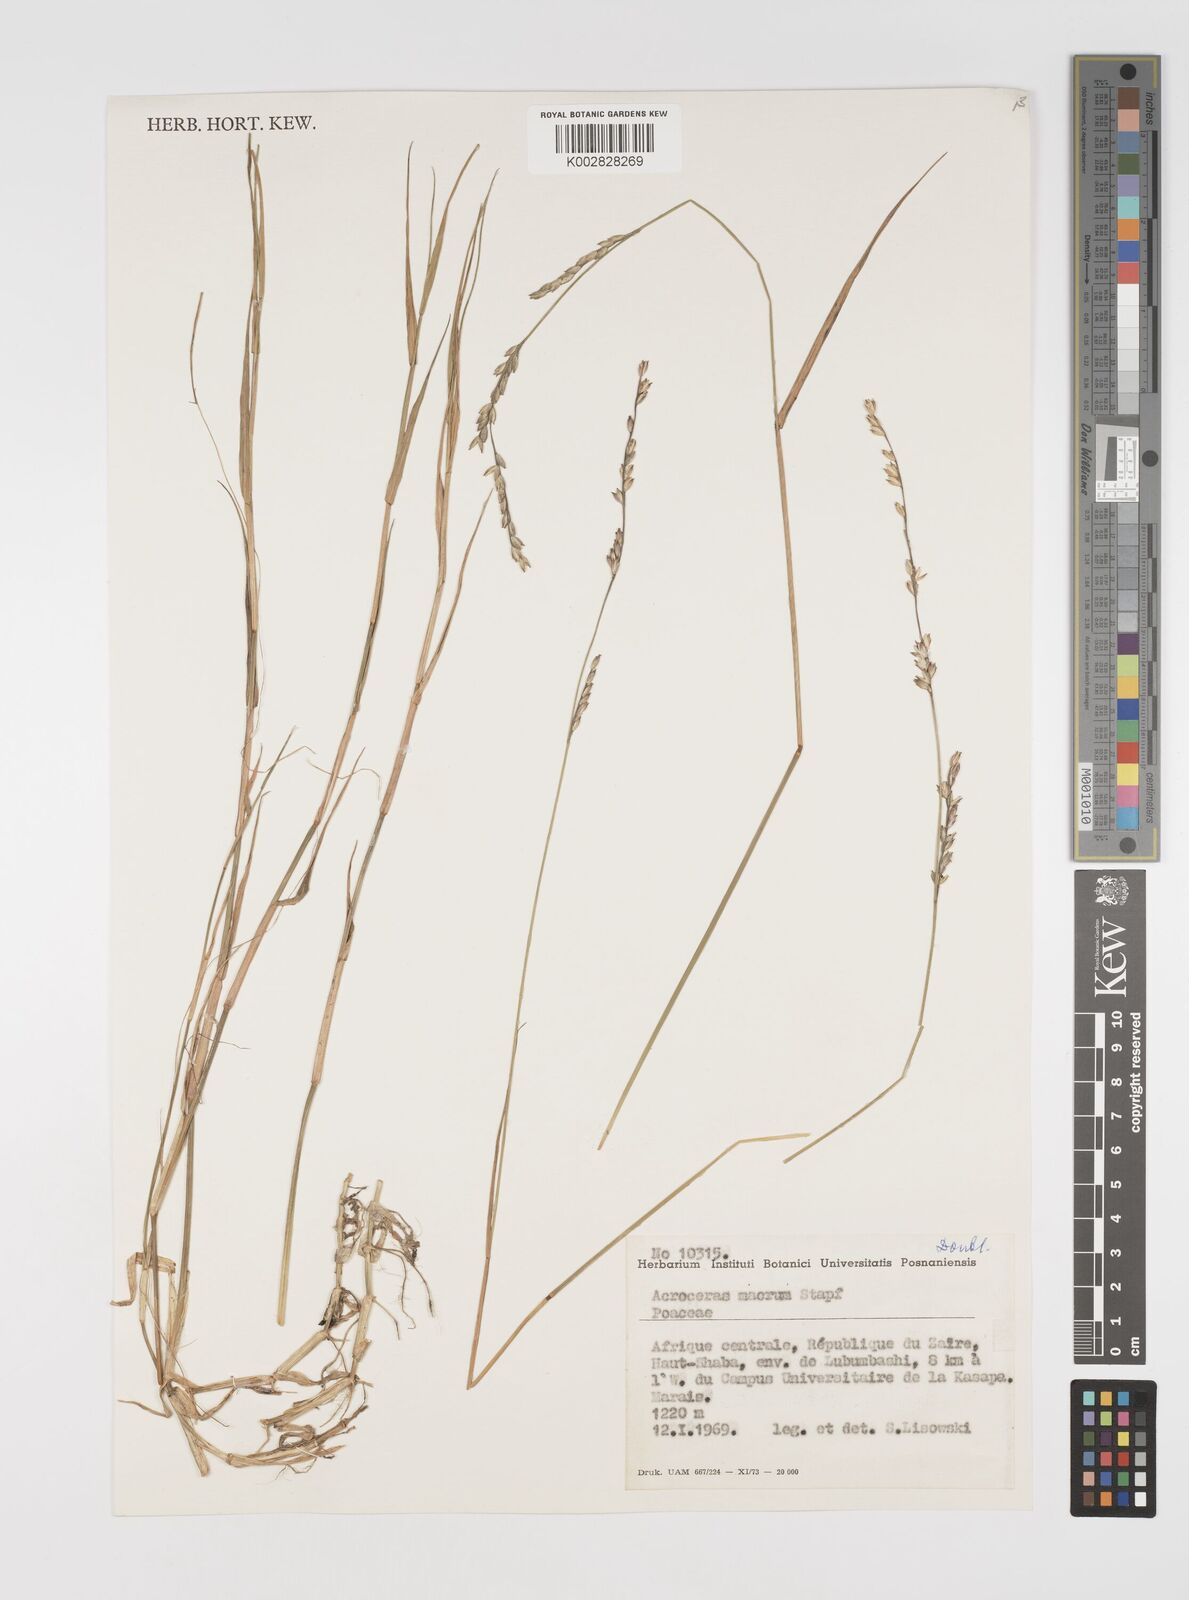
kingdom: Plantae
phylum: Tracheophyta
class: Liliopsida
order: Poales
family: Poaceae
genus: Acroceras
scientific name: Acroceras macrum
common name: Nyl grass
